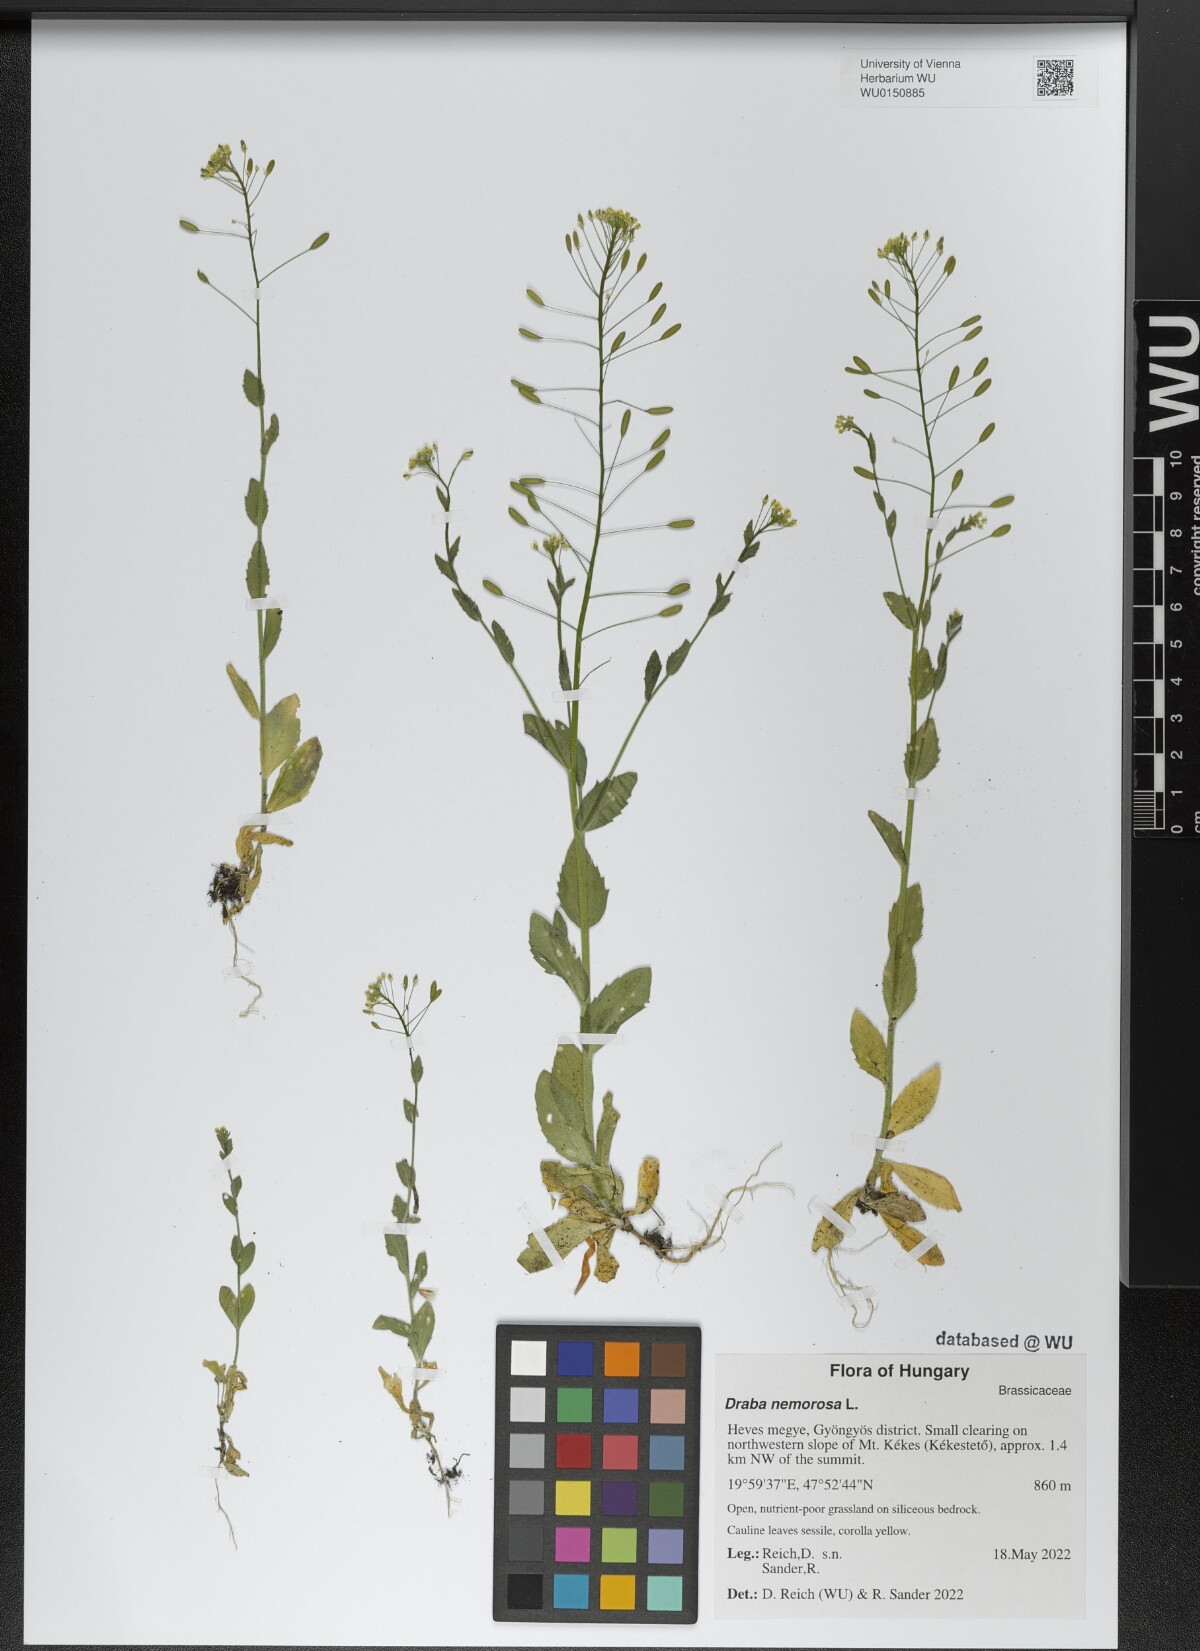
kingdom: Plantae
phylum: Tracheophyta
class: Magnoliopsida
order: Brassicales
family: Brassicaceae
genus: Draba
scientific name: Draba nemorosa
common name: Wood whitlow-grass
